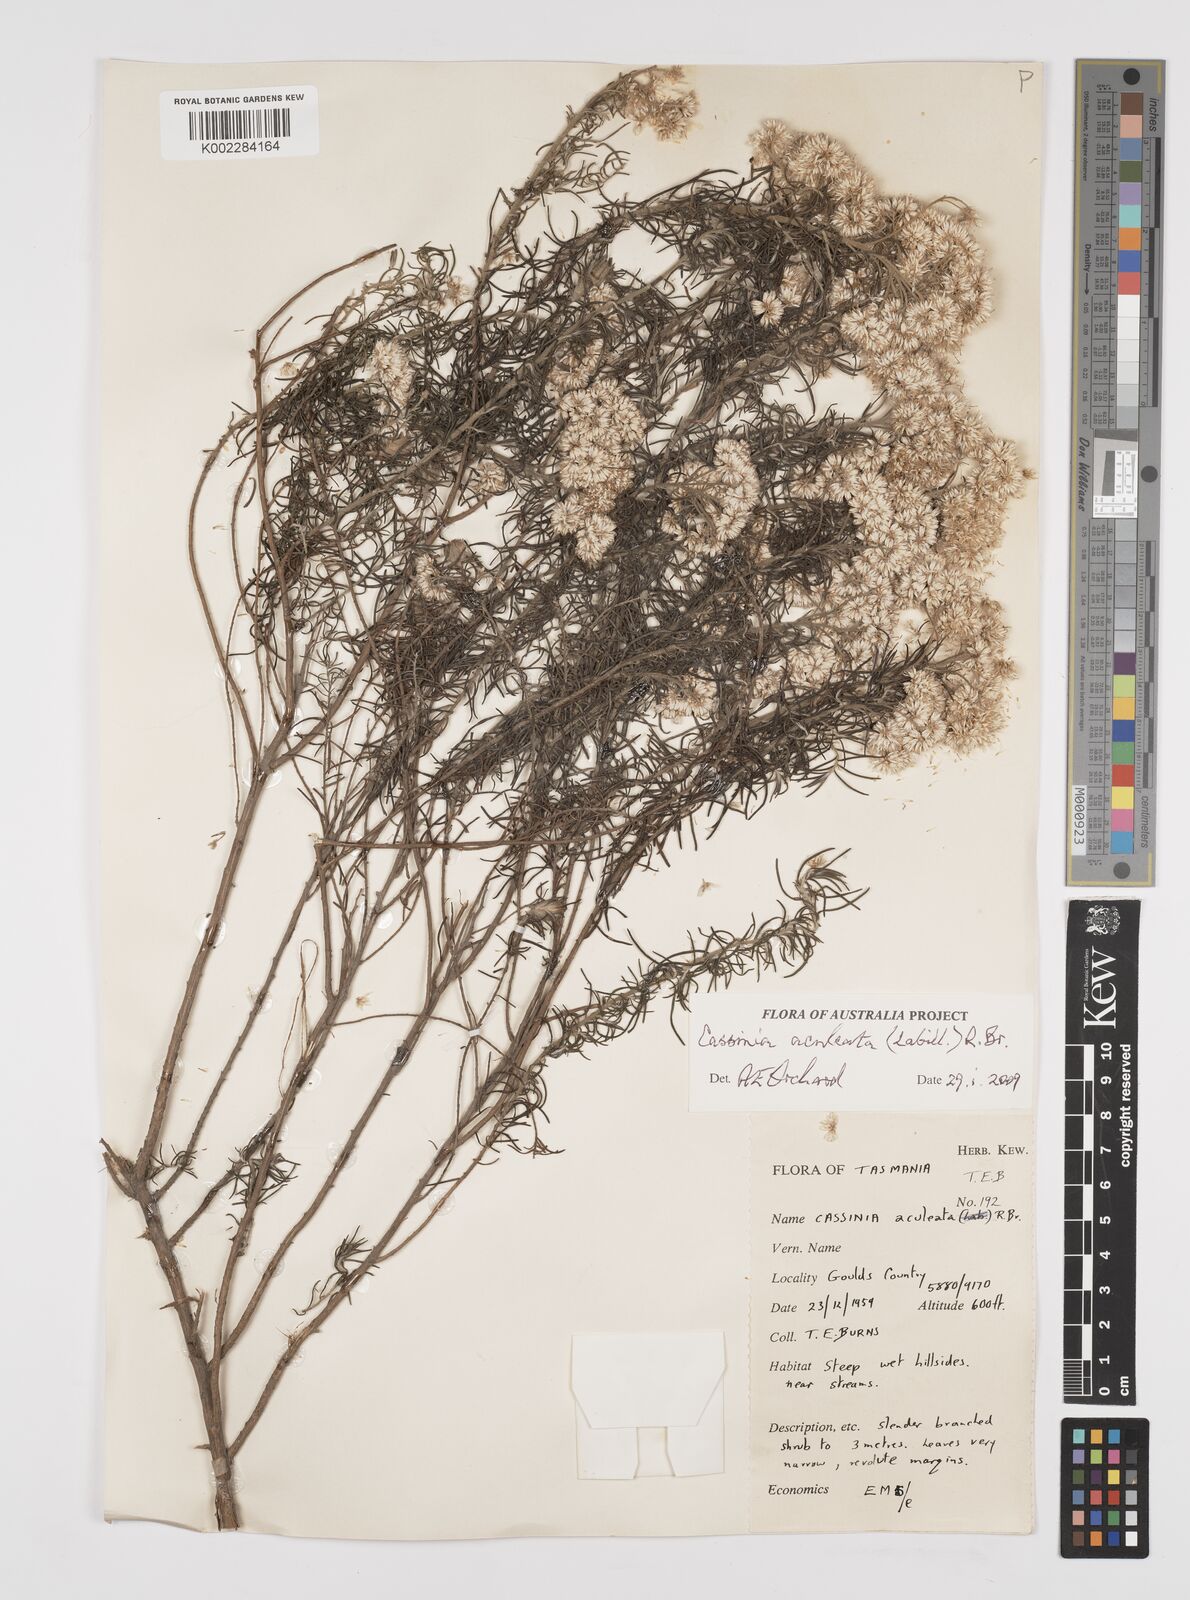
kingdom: Plantae
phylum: Tracheophyta
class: Magnoliopsida
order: Asterales
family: Asteraceae
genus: Cassinia
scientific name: Cassinia aculeata
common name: Australian tauhinu
